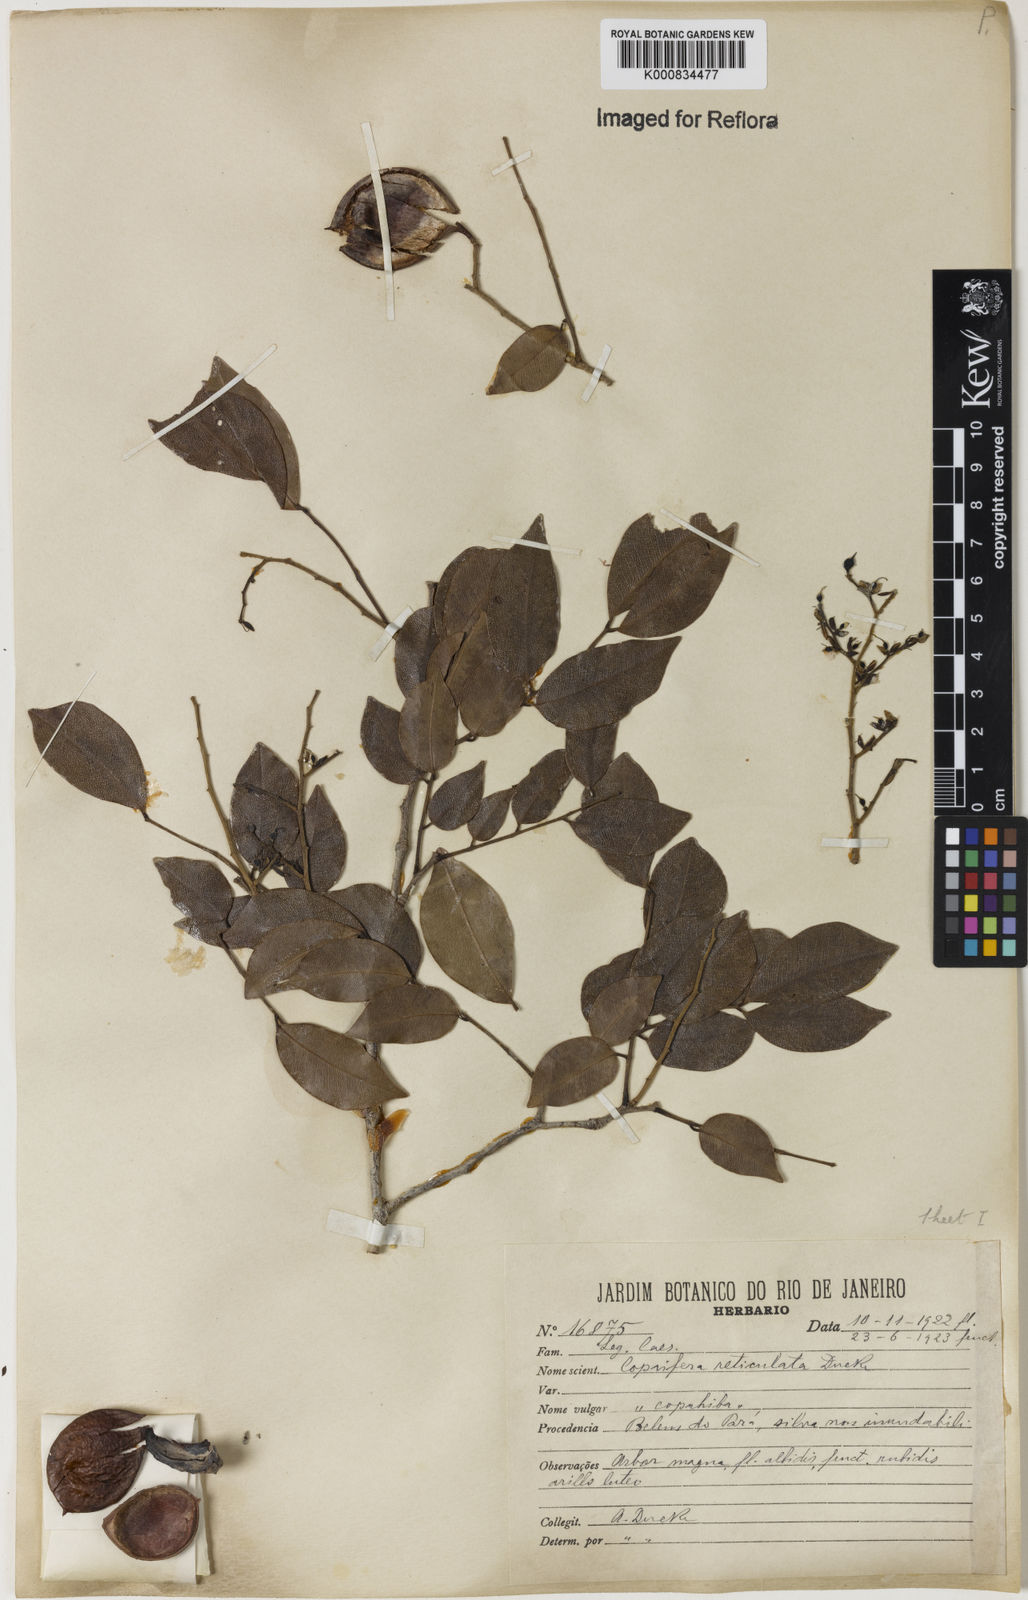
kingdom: Plantae
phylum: Tracheophyta
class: Magnoliopsida
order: Fabales
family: Fabaceae
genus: Copaifera
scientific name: Copaifera copaibo
